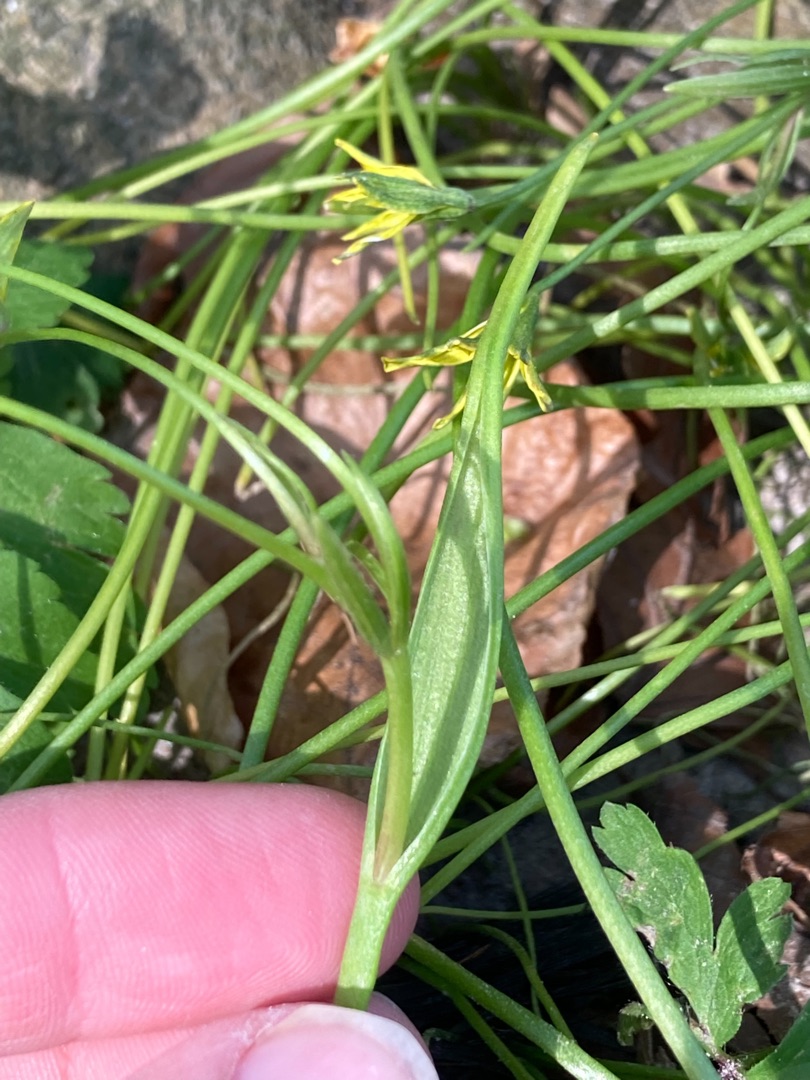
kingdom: Plantae
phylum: Tracheophyta
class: Liliopsida
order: Liliales
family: Liliaceae
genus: Gagea
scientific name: Gagea spathacea
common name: Hylster-guldstjerne
